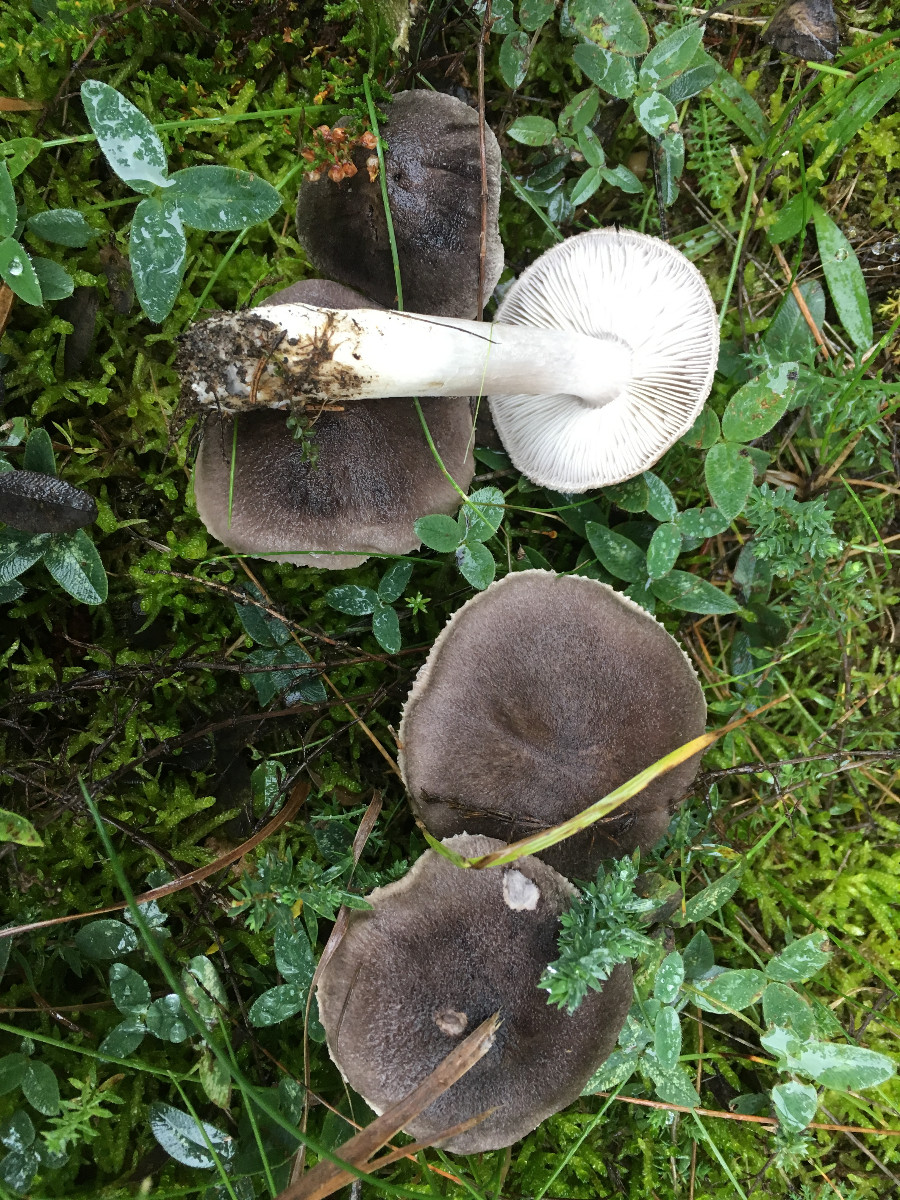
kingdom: Fungi
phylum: Basidiomycota
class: Agaricomycetes
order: Agaricales
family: Tricholomataceae
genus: Tricholoma
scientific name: Tricholoma terreum
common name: jordfarvet ridderhat
